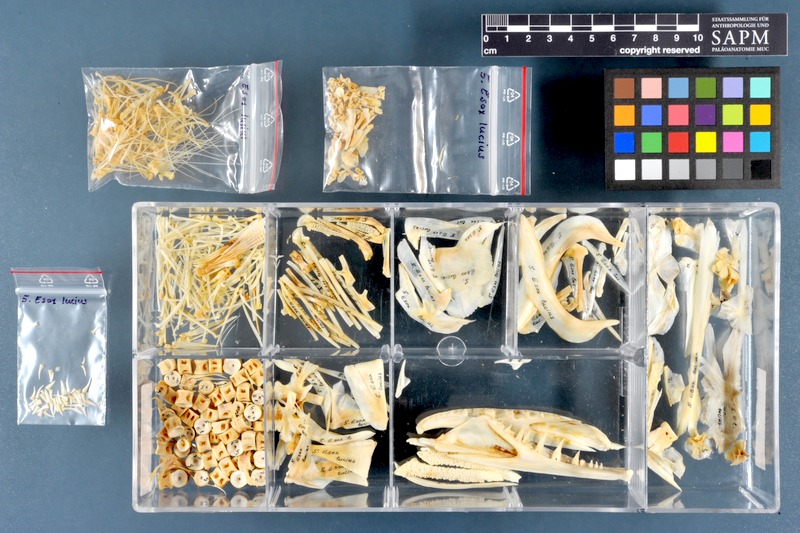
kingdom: Animalia
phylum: Chordata
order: Esociformes
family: Esocidae
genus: Esox
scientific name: Esox lucius
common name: Northern pike
